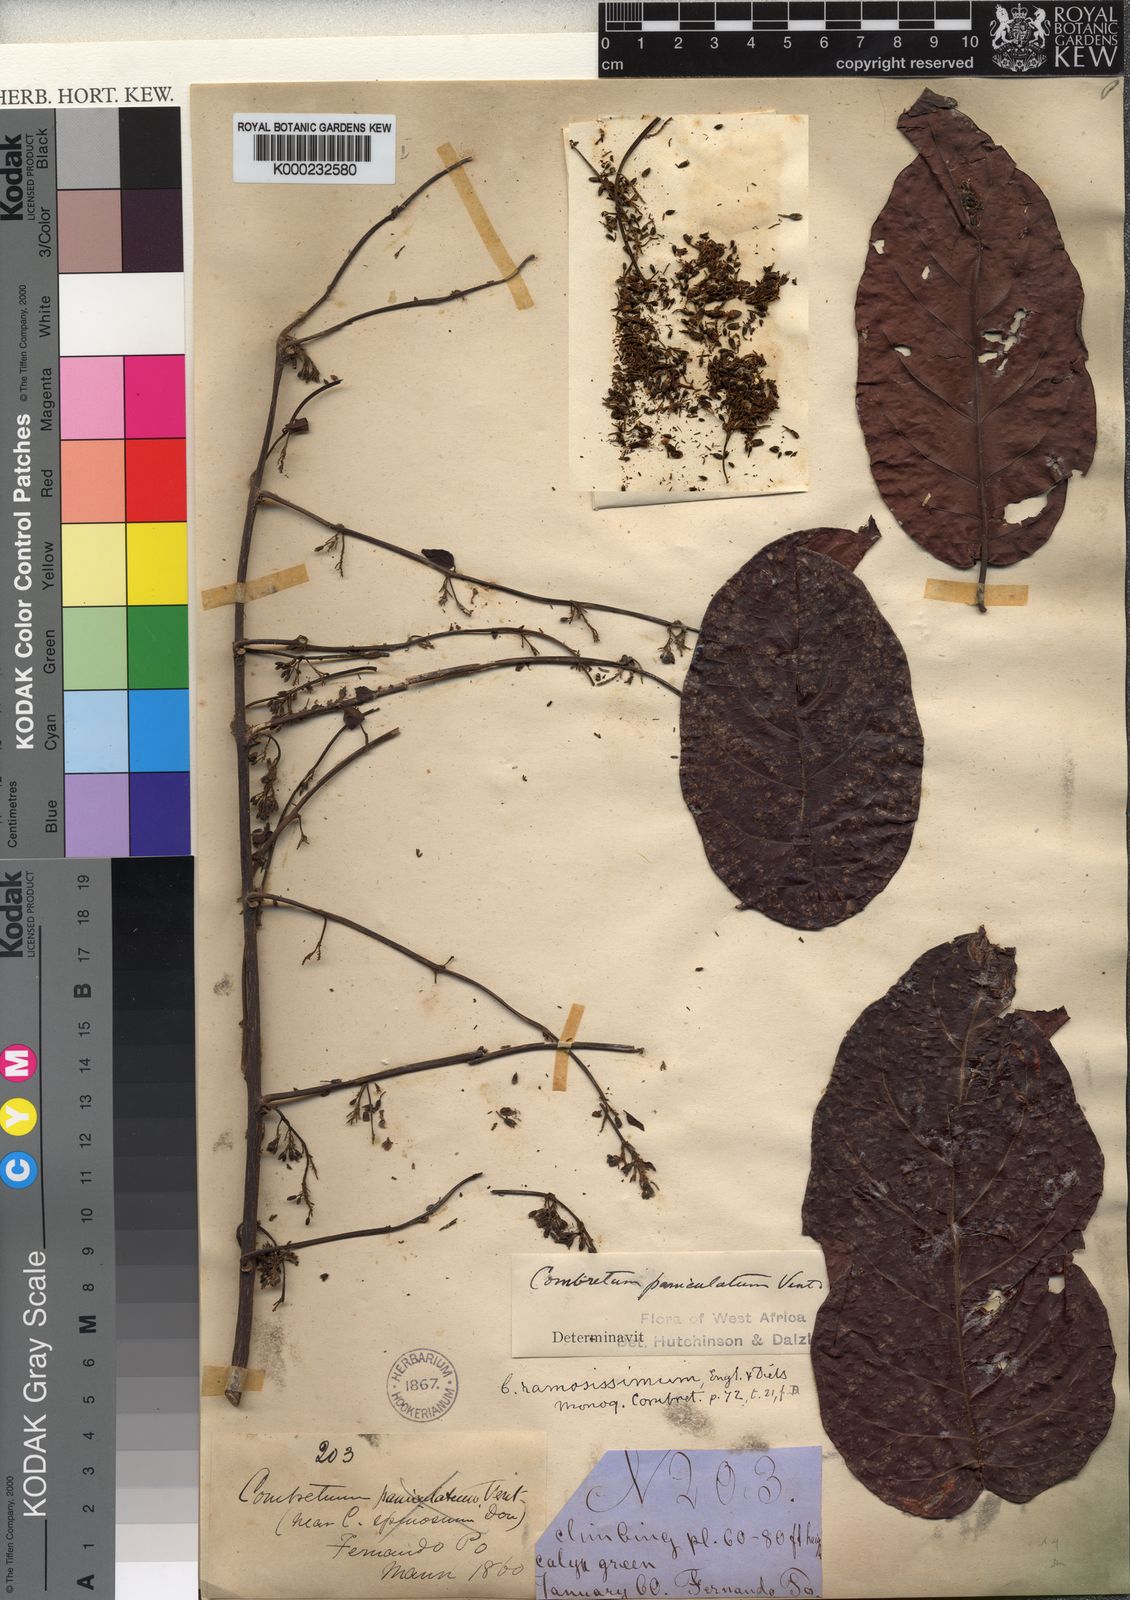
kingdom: Plantae
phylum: Tracheophyta
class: Magnoliopsida
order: Myrtales
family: Combretaceae
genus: Combretum
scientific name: Combretum paniculatum
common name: Fire vine
